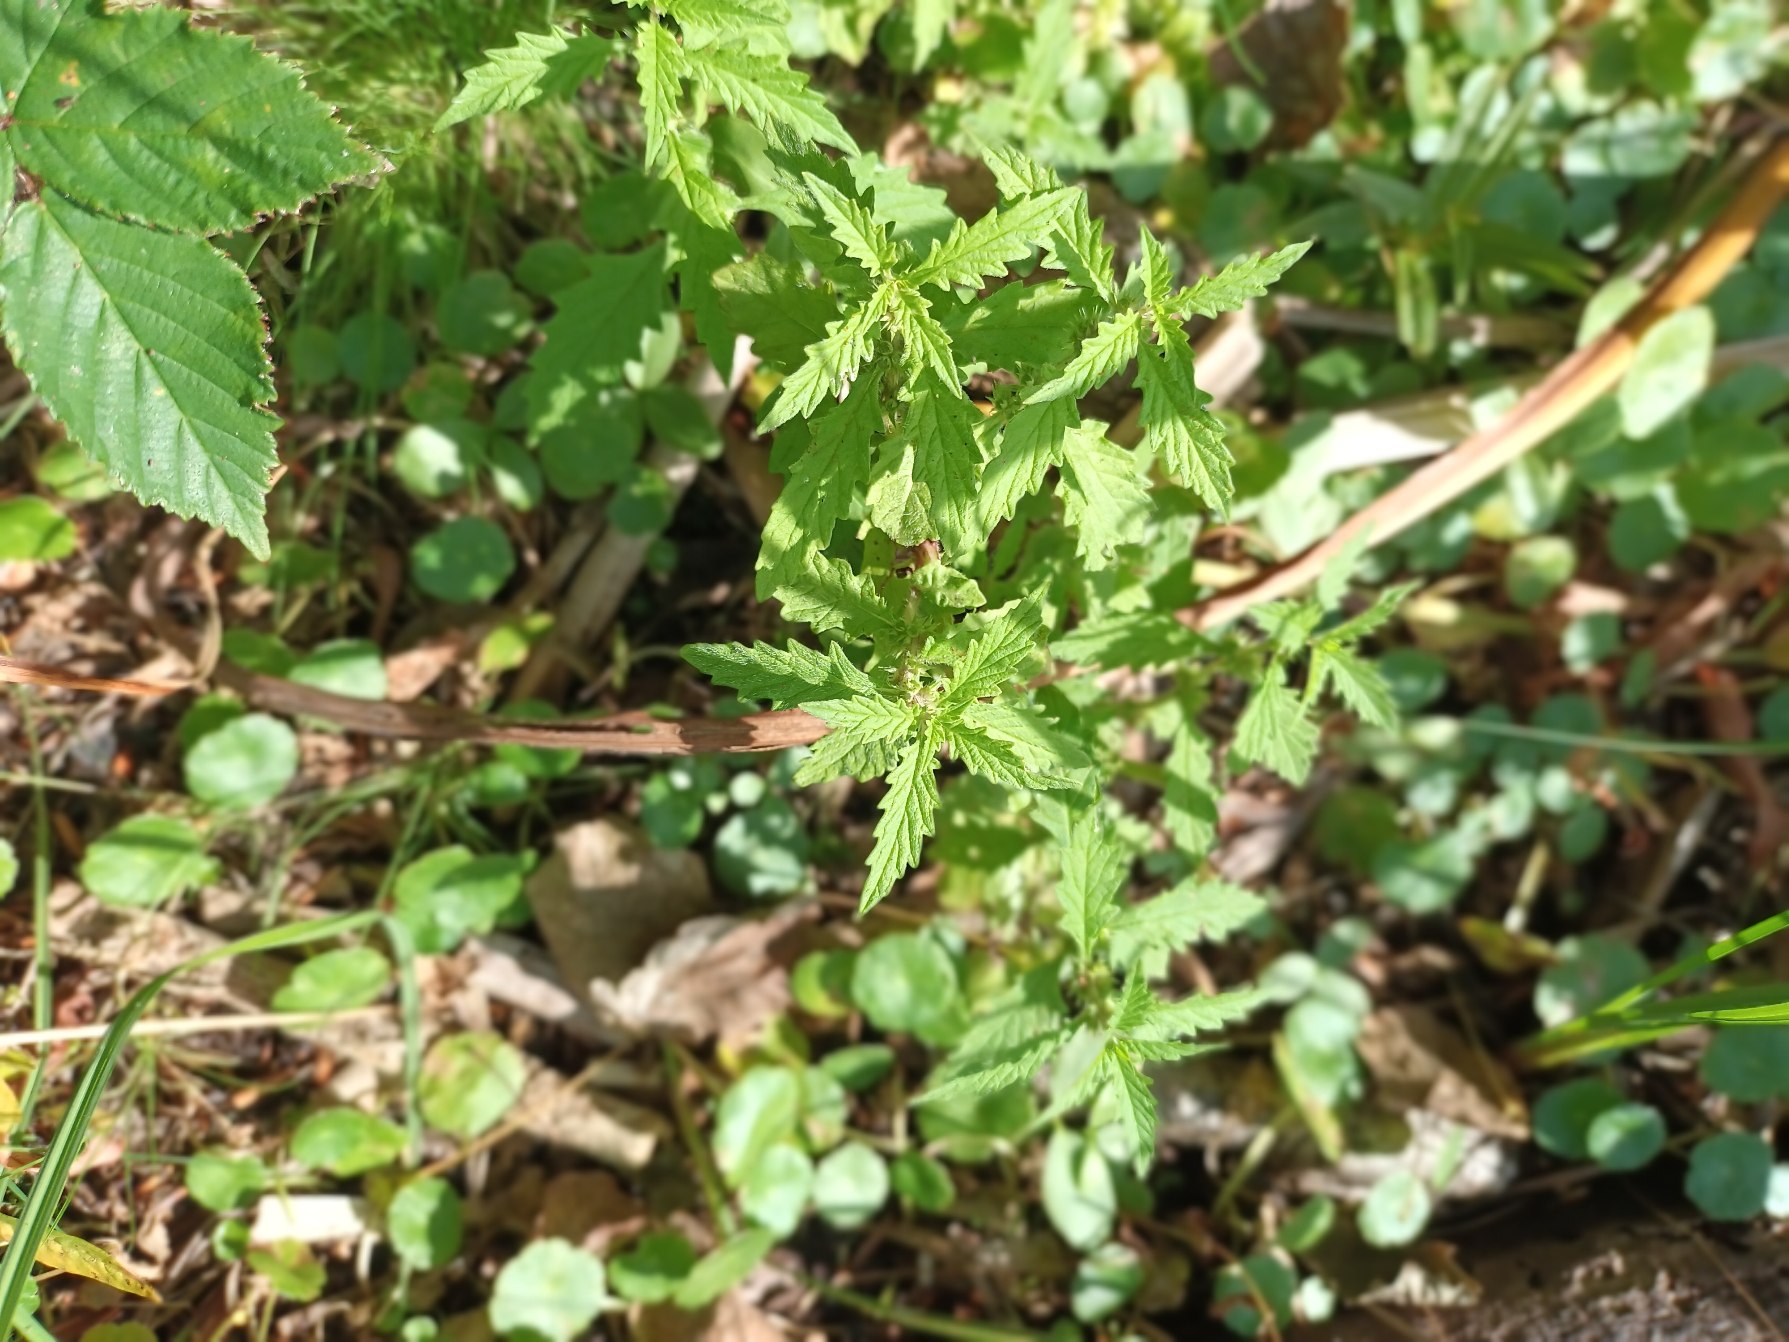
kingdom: Plantae
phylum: Tracheophyta
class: Magnoliopsida
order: Lamiales
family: Lamiaceae
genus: Lycopus
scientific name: Lycopus europaeus
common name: Sværtevæld
